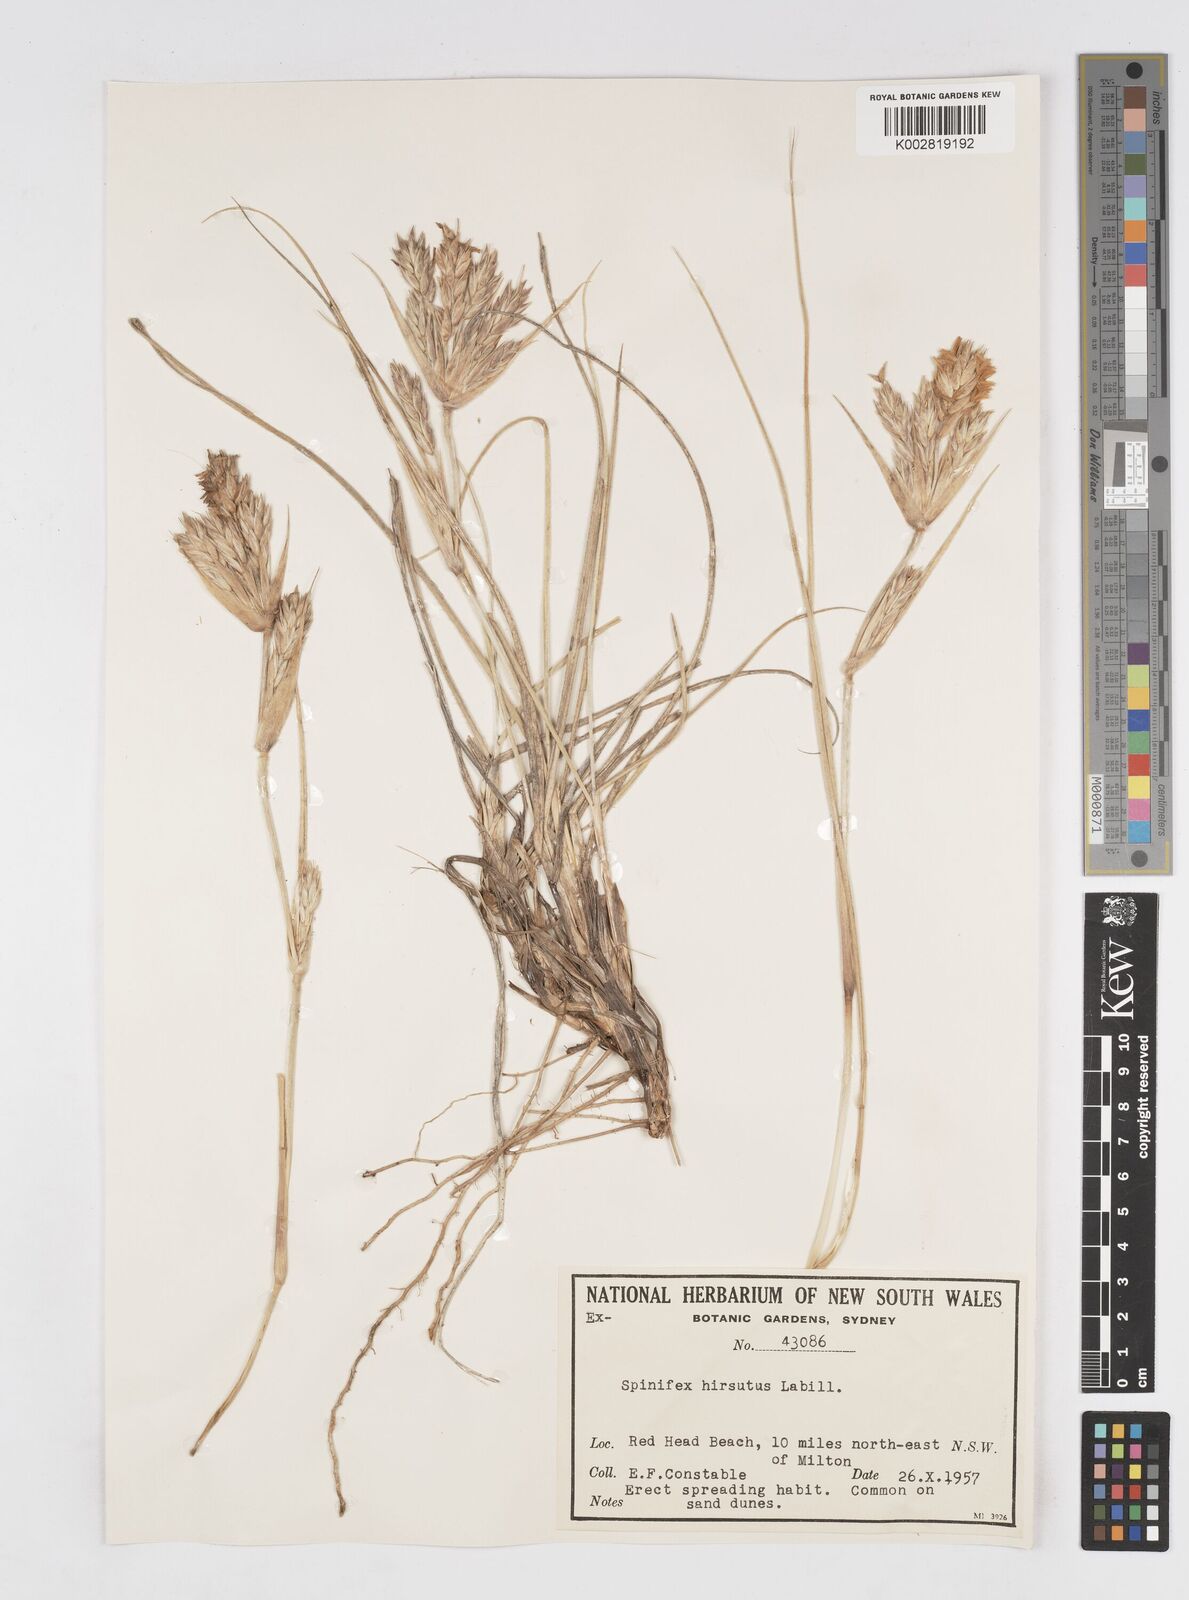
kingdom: Plantae
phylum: Tracheophyta
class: Liliopsida
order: Poales
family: Poaceae
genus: Spinifex
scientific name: Spinifex sericeus
